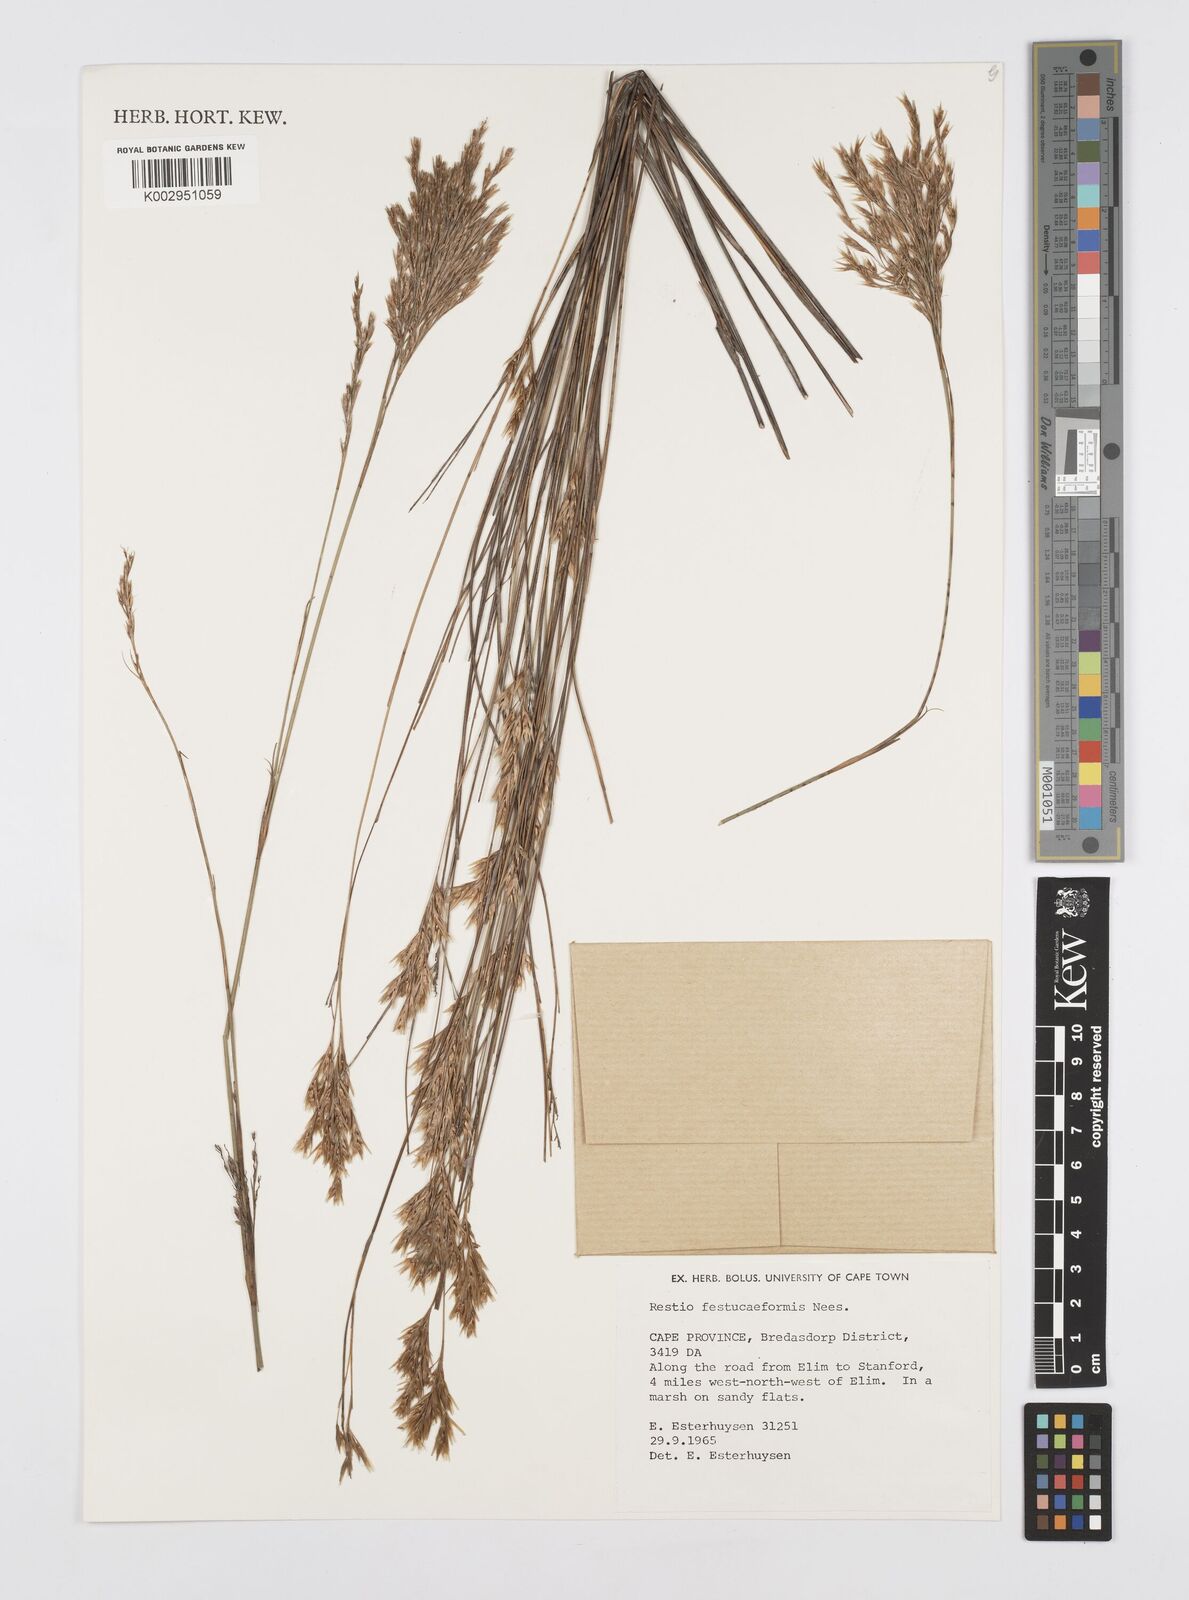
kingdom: Plantae
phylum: Tracheophyta
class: Liliopsida
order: Poales
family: Restionaceae
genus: Restio
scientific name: Restio festuciformis
